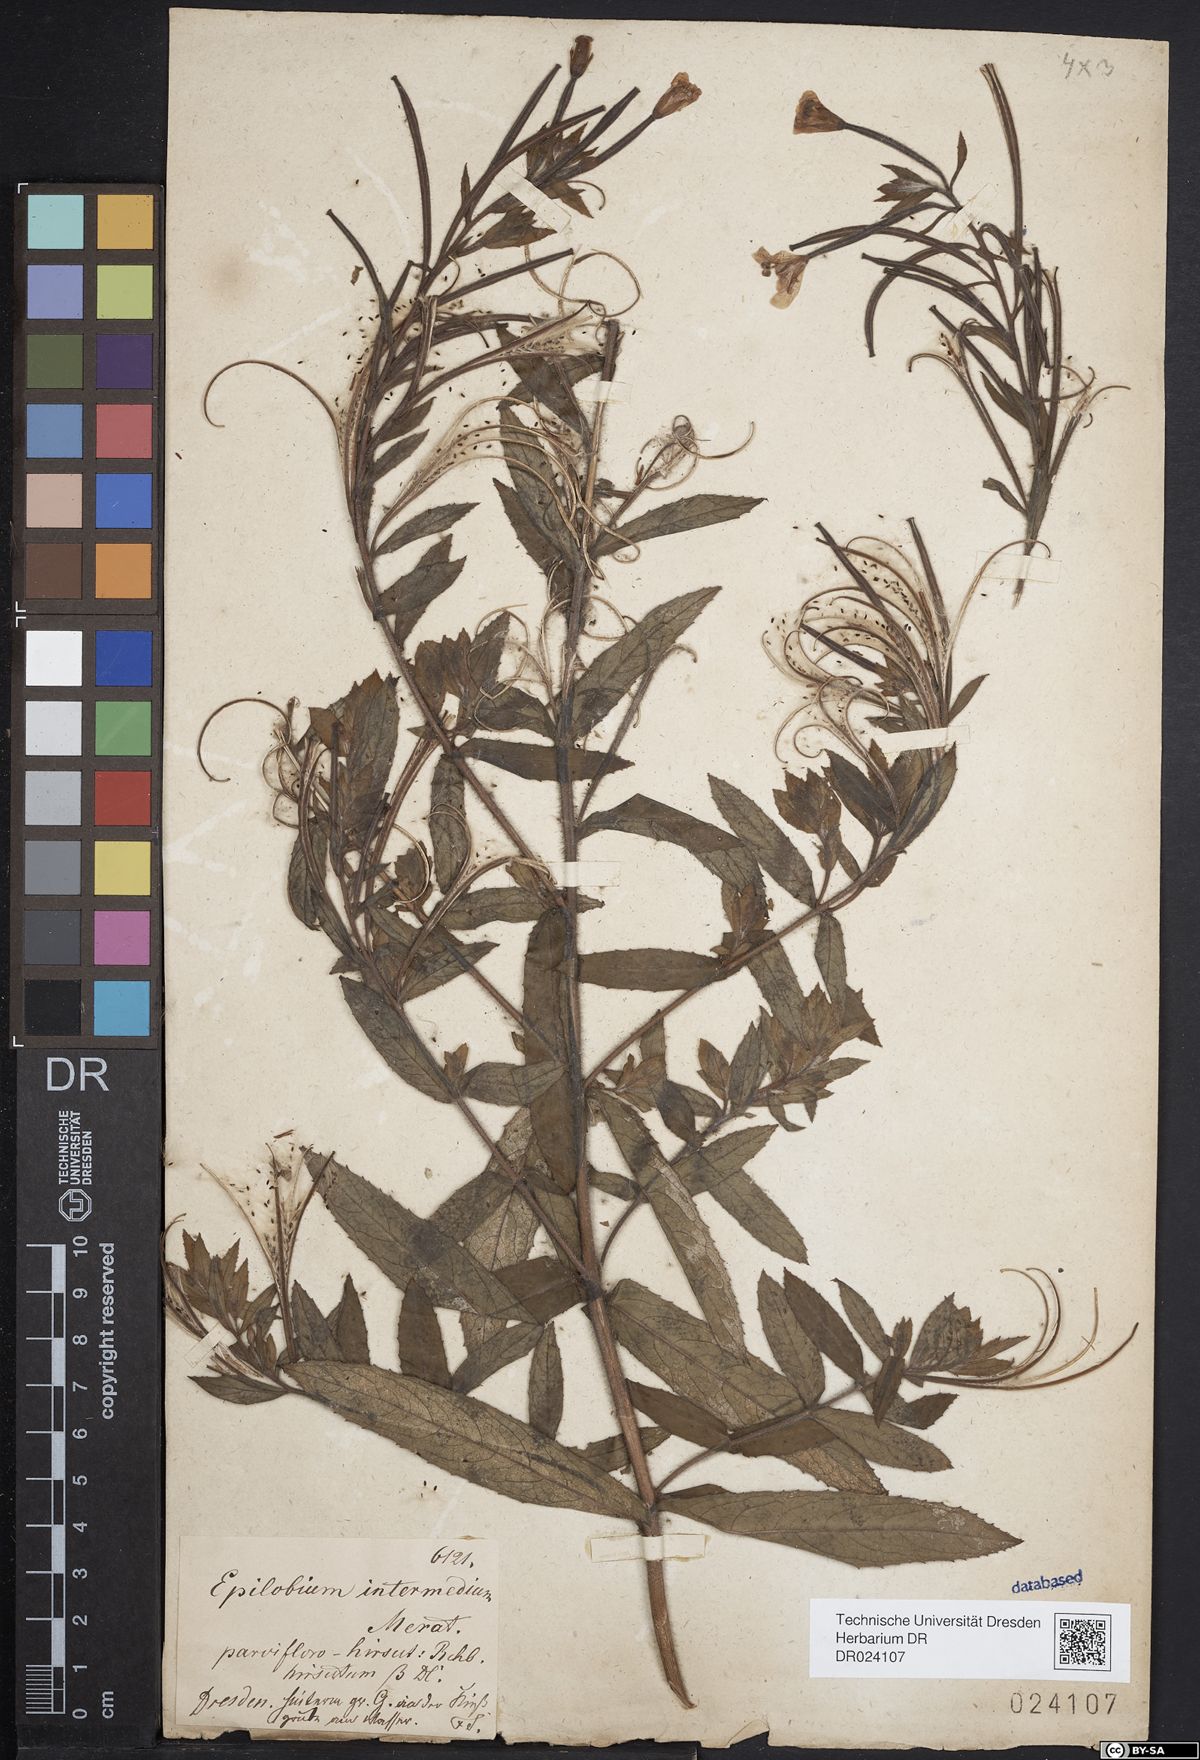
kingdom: Plantae
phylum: Tracheophyta
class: Magnoliopsida
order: Myrtales
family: Onagraceae
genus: Epilobium
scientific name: Epilobium sericeum
